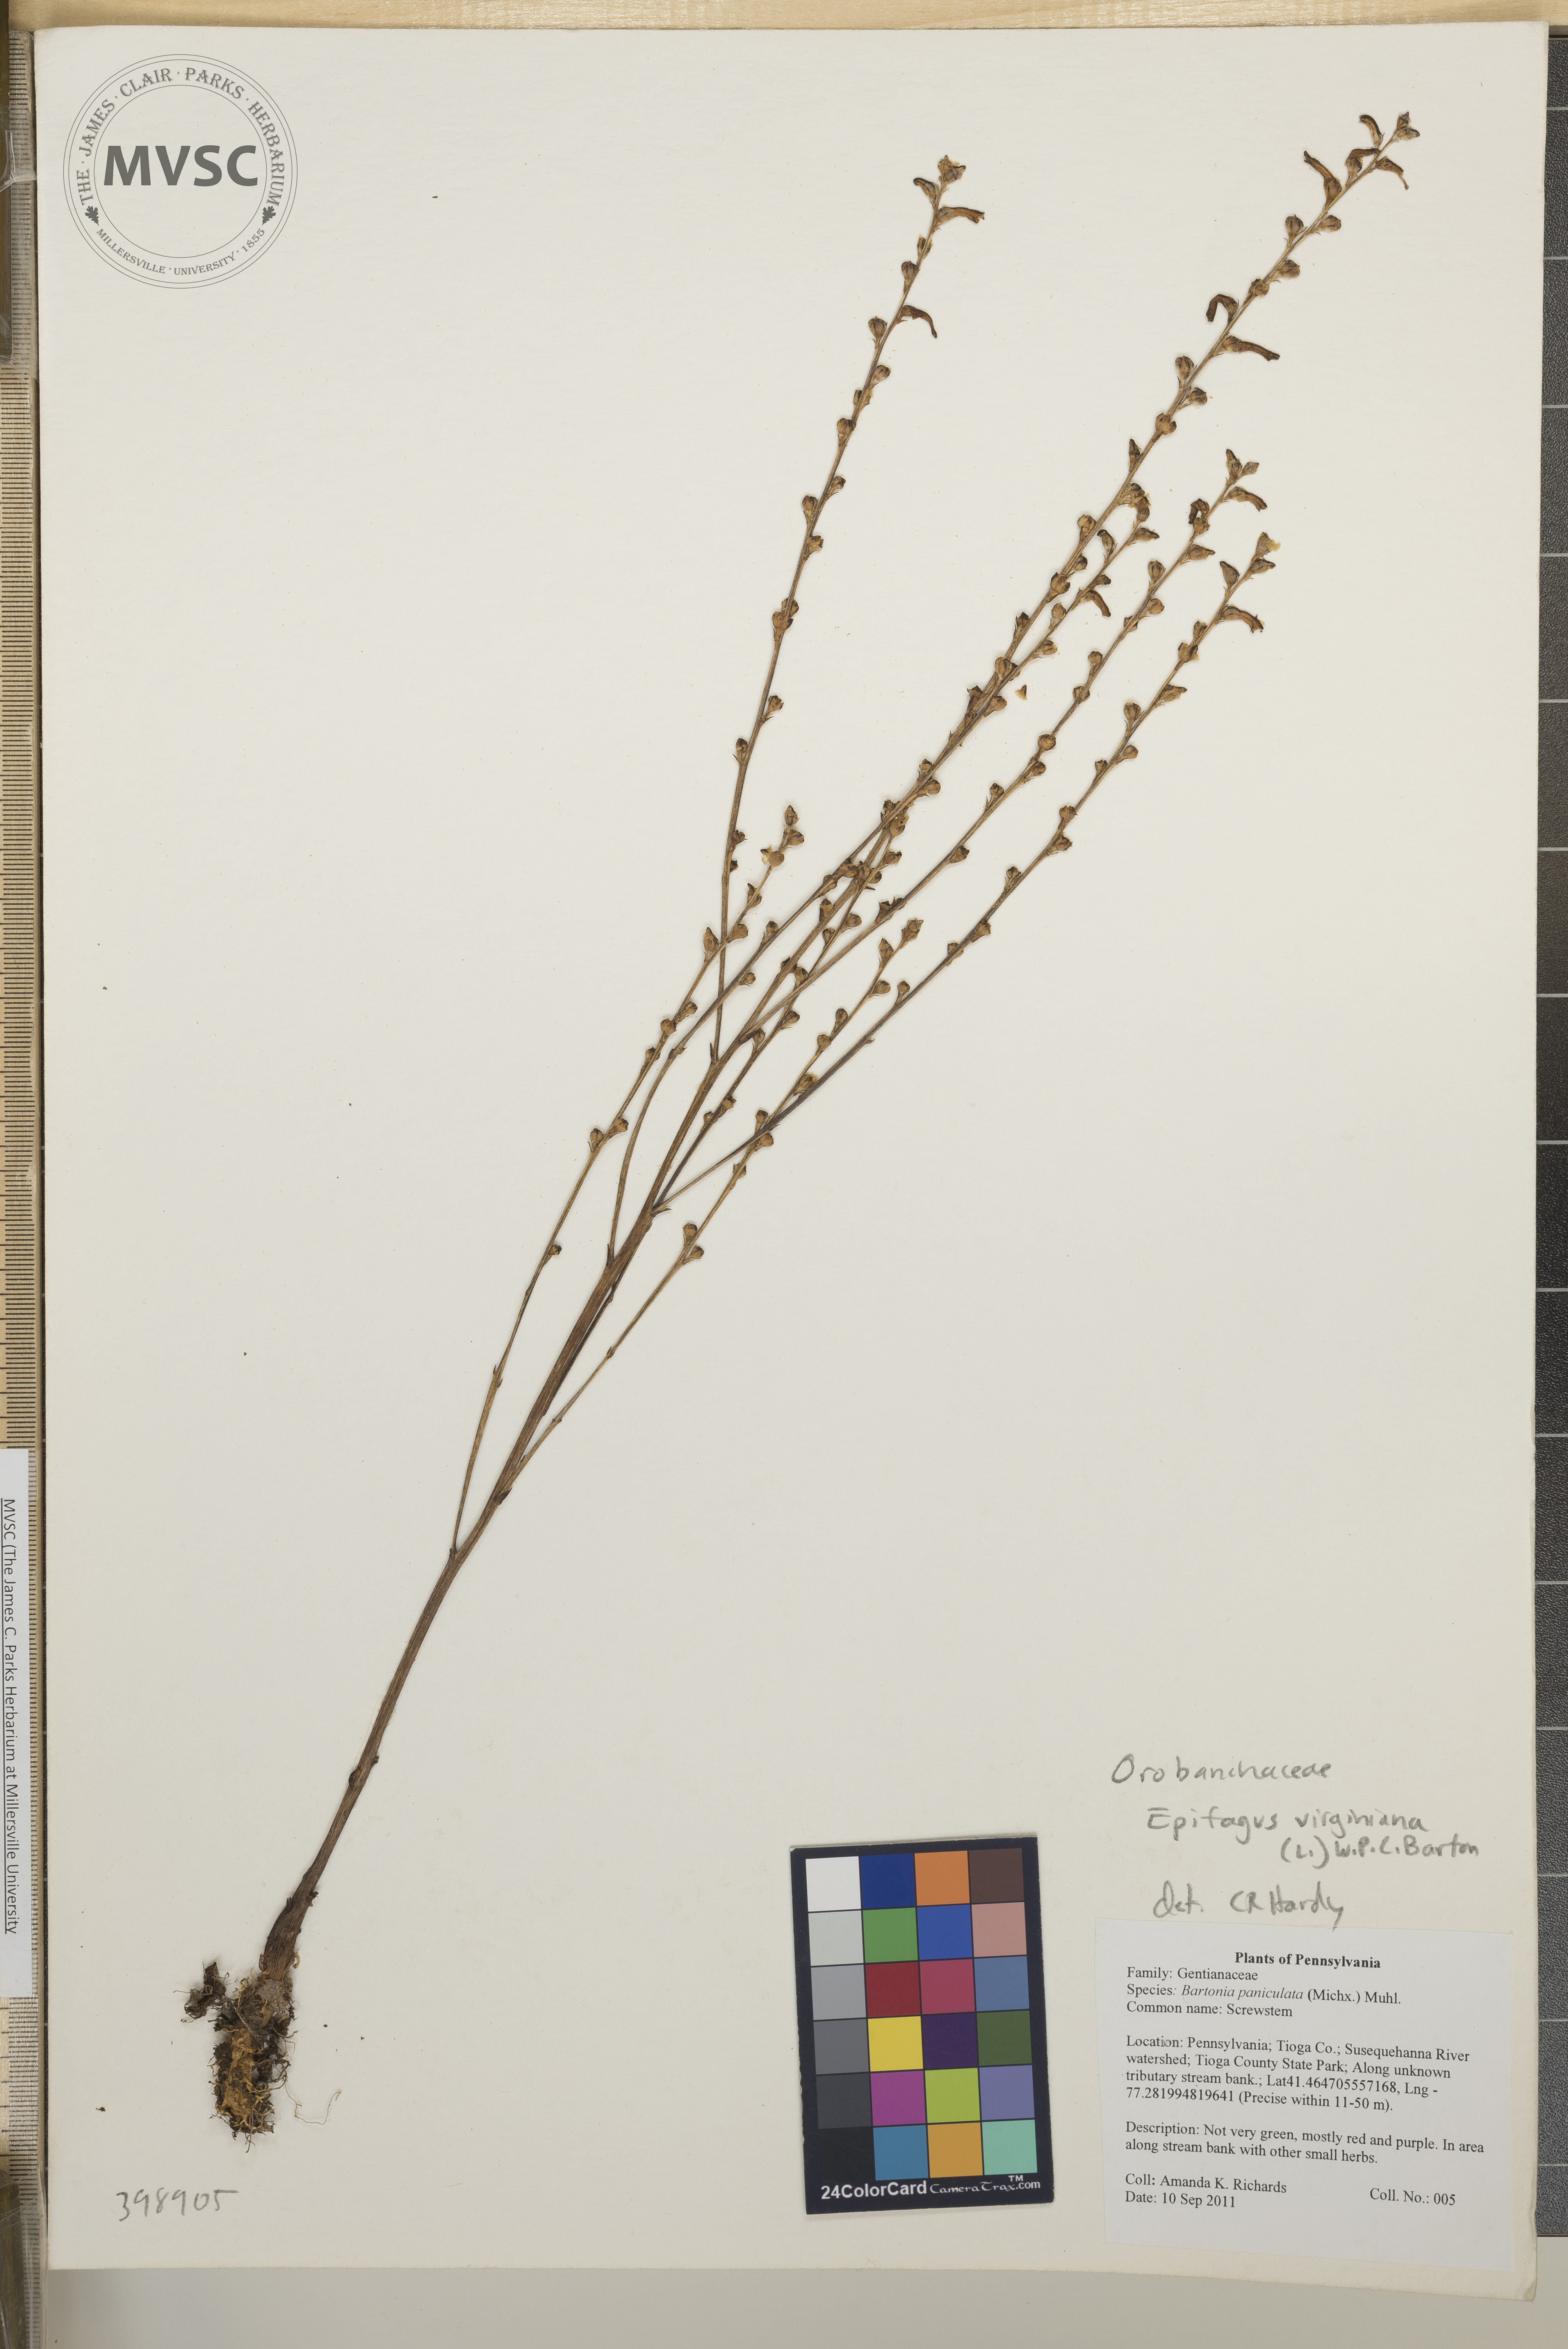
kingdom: Plantae
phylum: Tracheophyta
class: Magnoliopsida
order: Lamiales
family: Orobanchaceae
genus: Epifagus
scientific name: Epifagus virginiana
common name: Beechdrops
